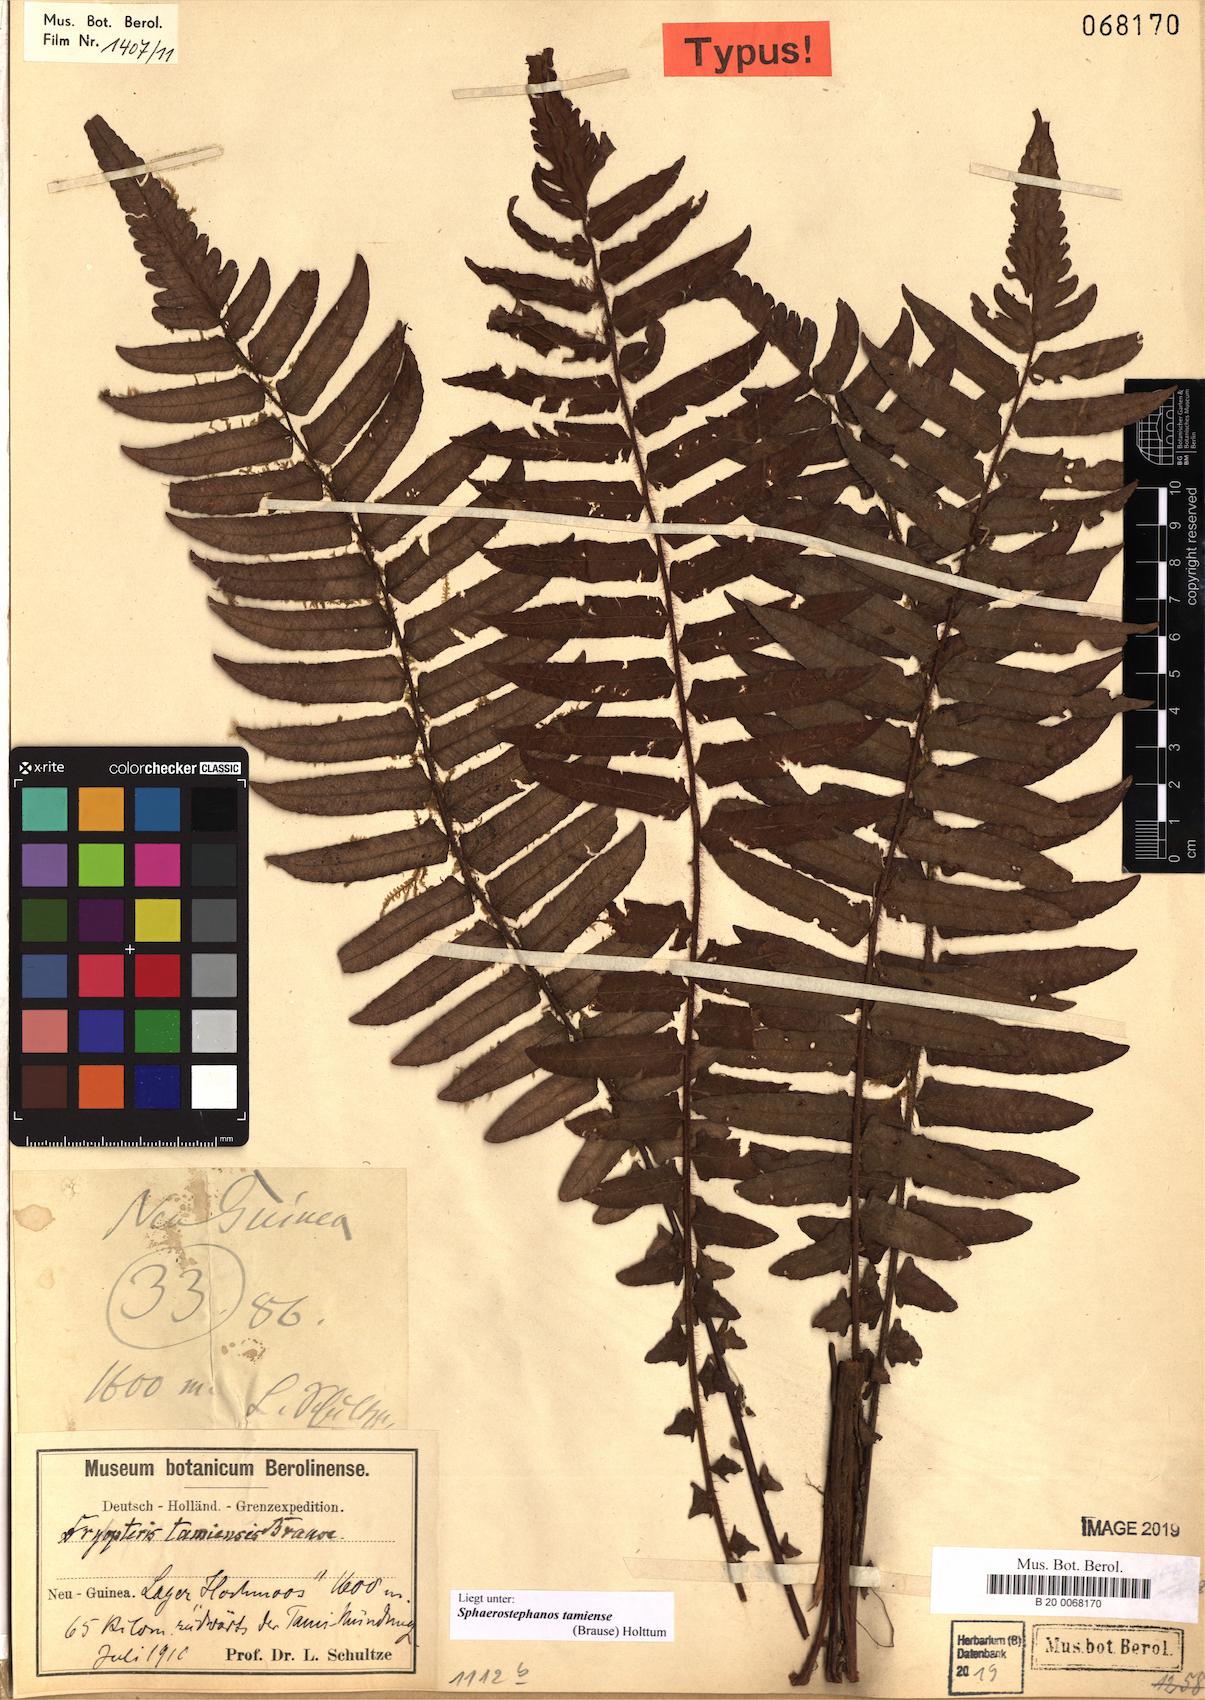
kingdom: Plantae
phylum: Tracheophyta
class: Polypodiopsida
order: Polypodiales
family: Thelypteridaceae
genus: Sphaerostephanos
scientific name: Sphaerostephanos tamiensis
